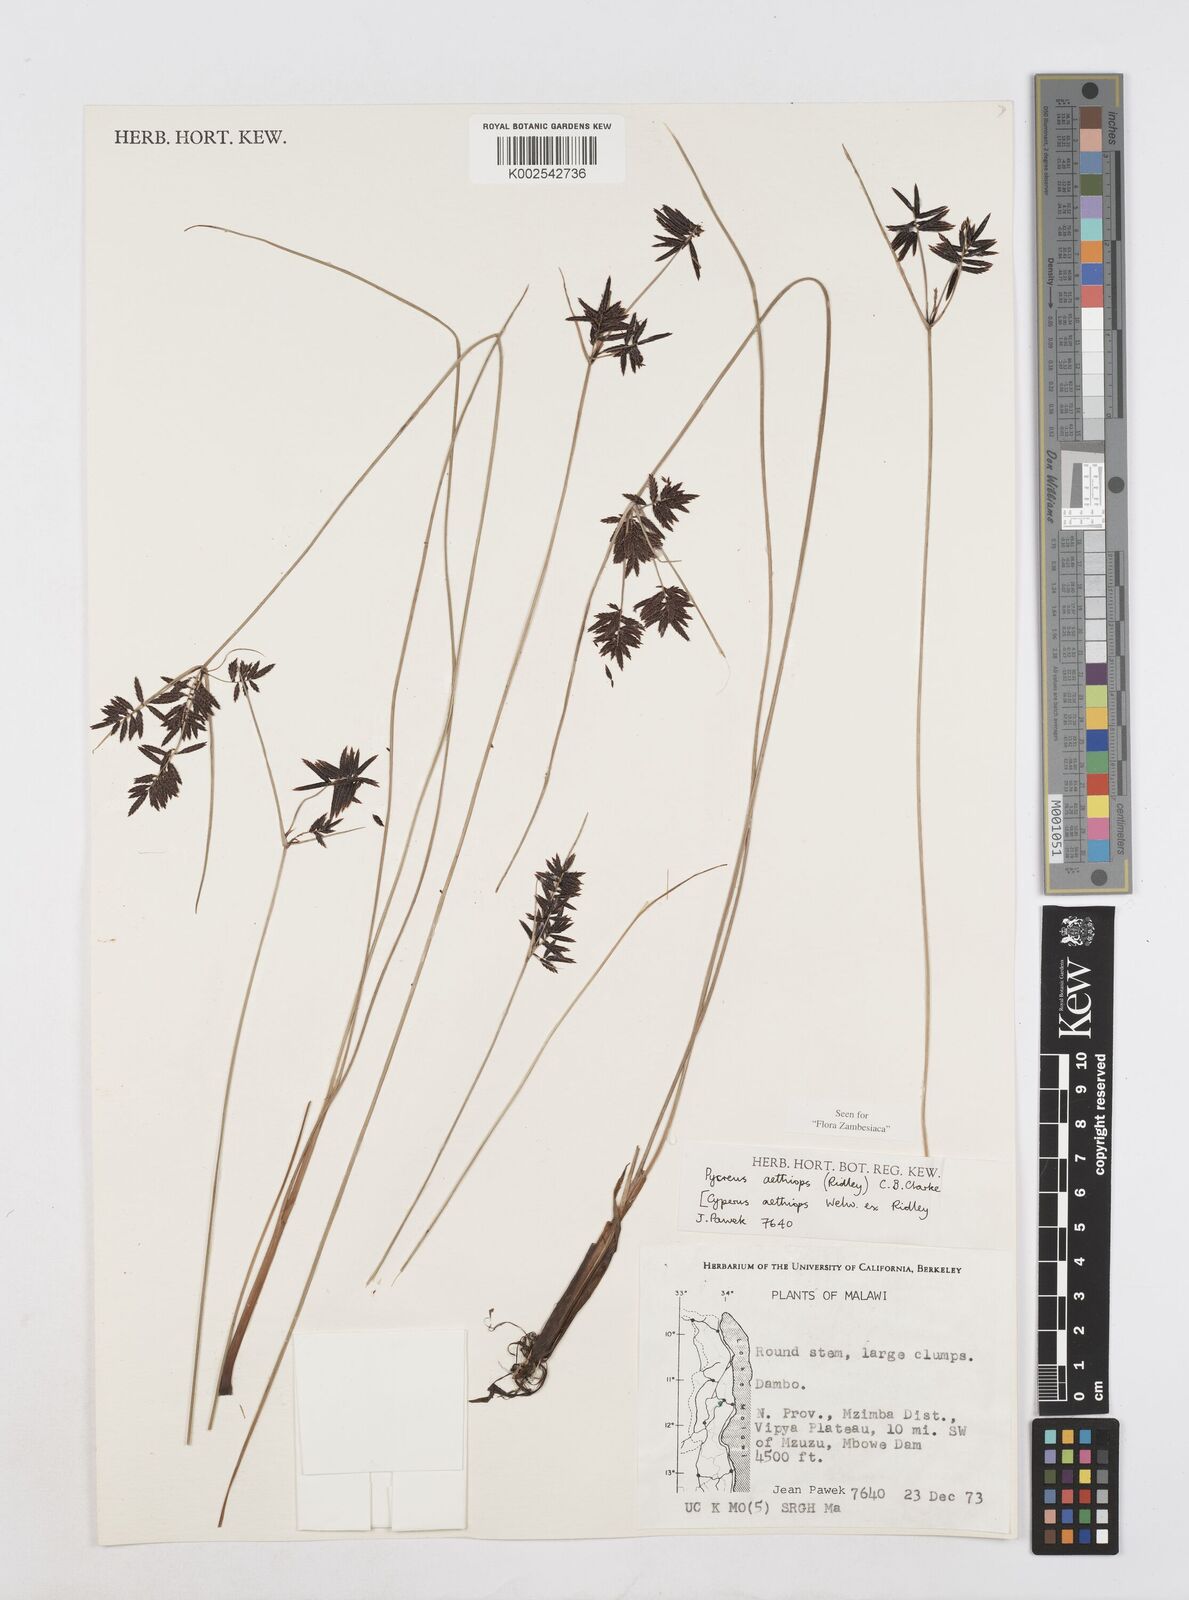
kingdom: Plantae
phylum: Tracheophyta
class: Liliopsida
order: Poales
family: Cyperaceae
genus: Cyperus
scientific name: Cyperus aethiops
